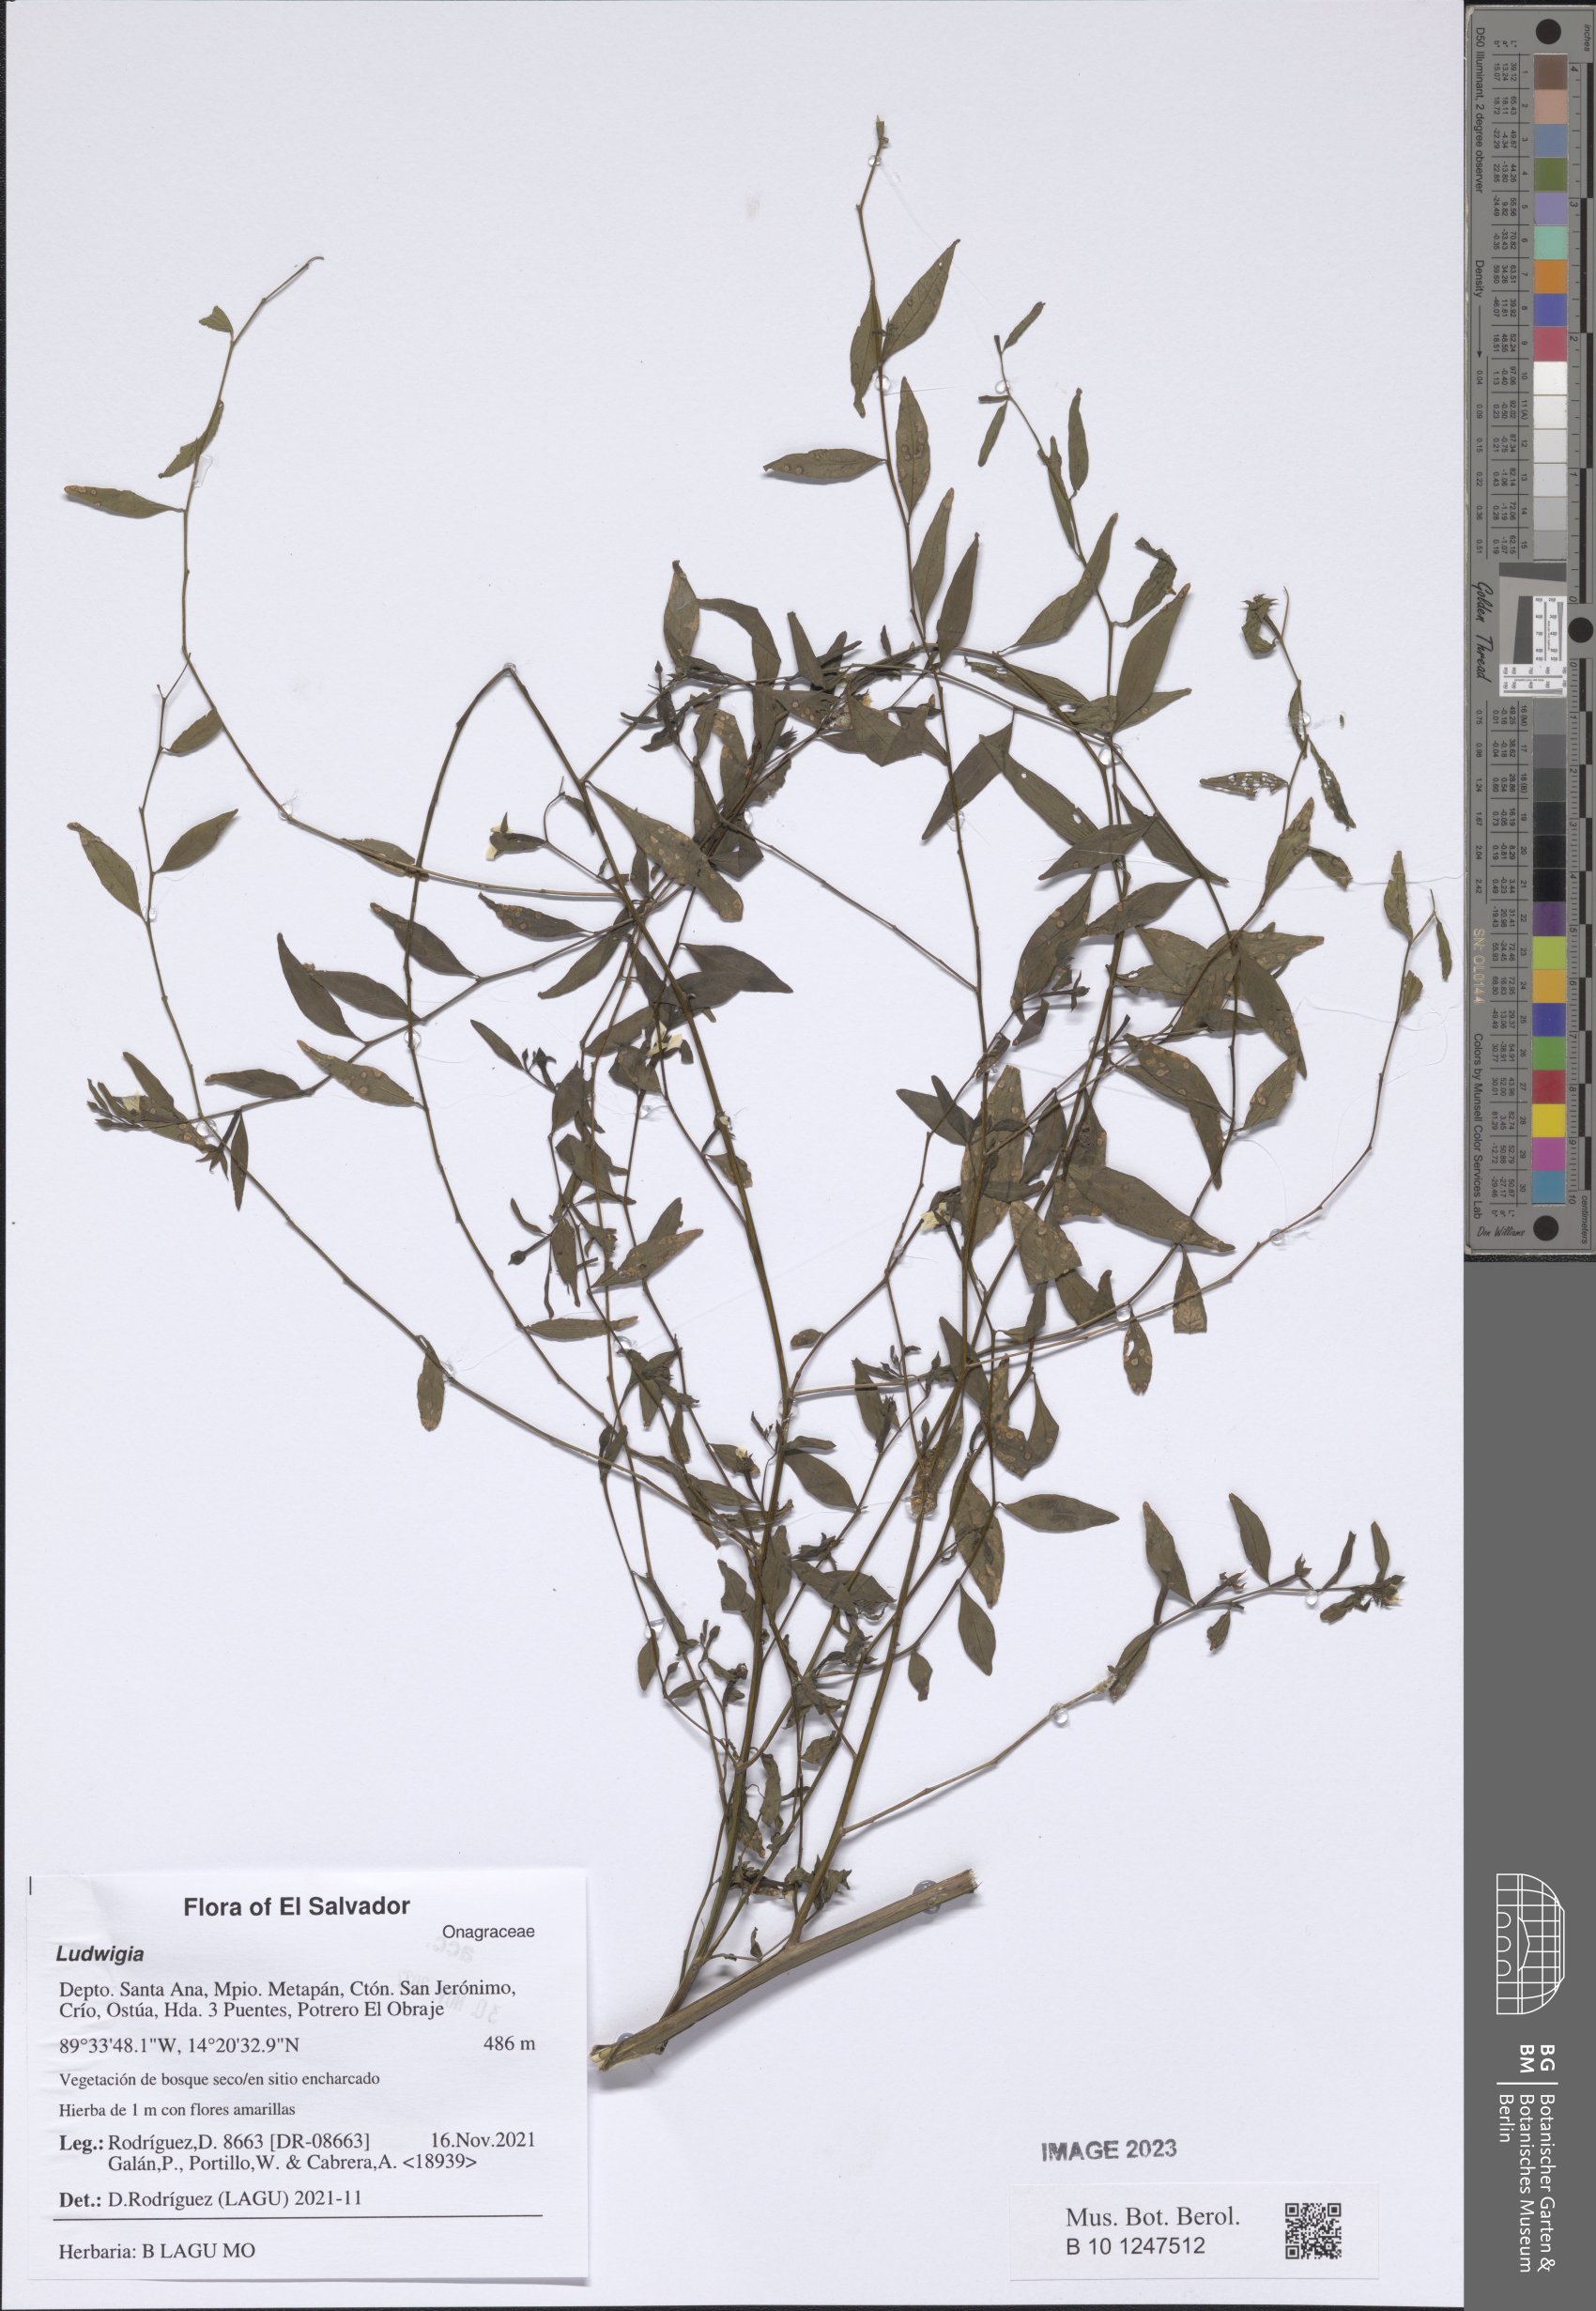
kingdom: Plantae
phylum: Tracheophyta
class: Magnoliopsida
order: Myrtales
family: Onagraceae
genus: Ludwigia
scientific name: Ludwigia
